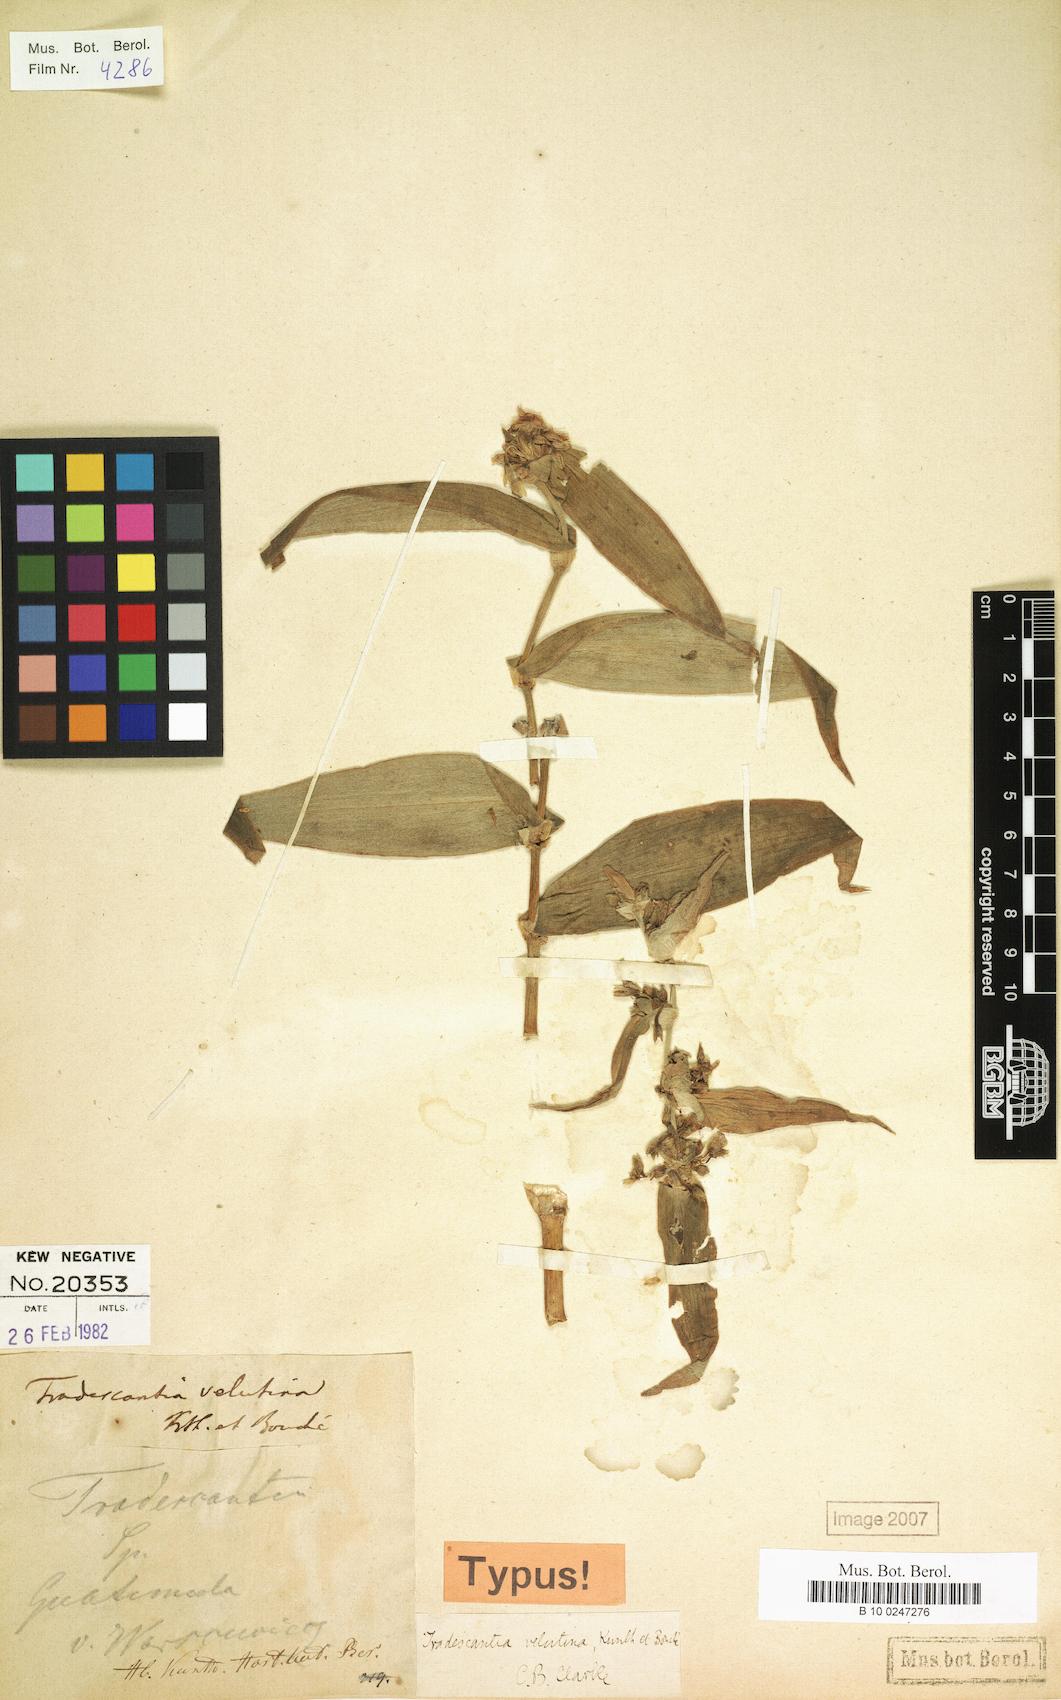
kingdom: Plantae
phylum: Tracheophyta
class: Liliopsida
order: Commelinales
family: Commelinaceae
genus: Tradescantia
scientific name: Tradescantia velutina
